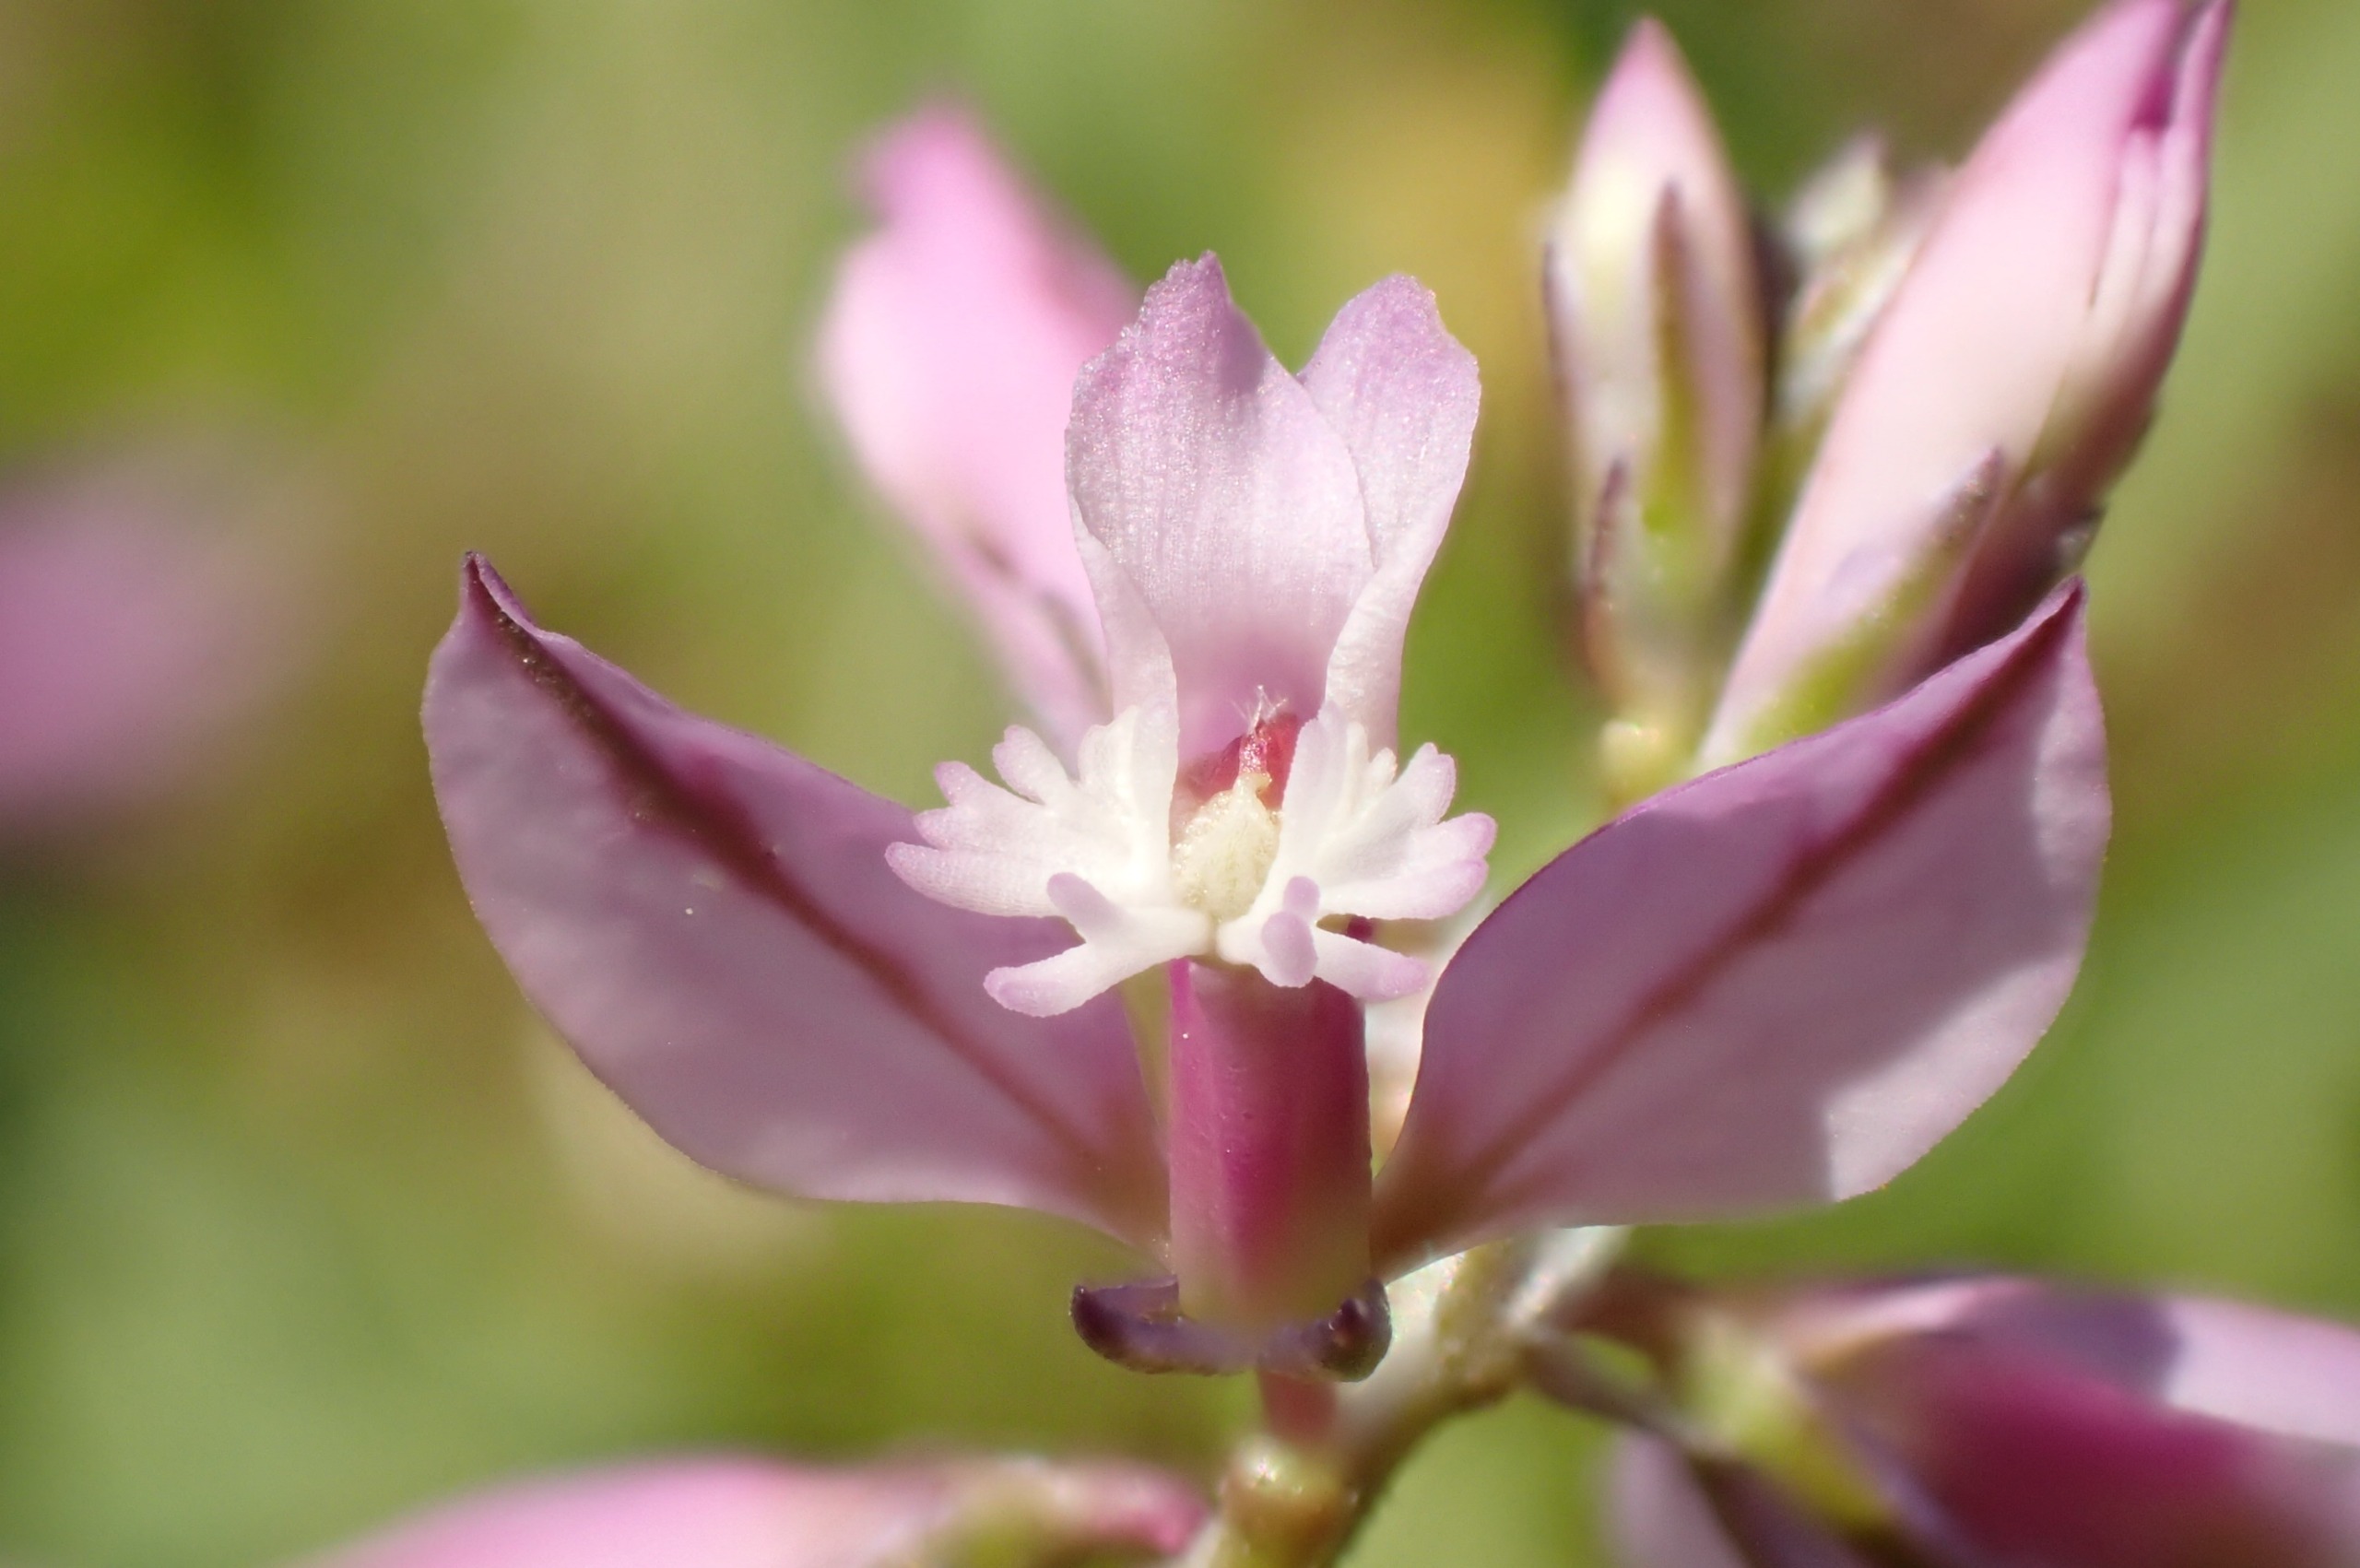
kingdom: Plantae
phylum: Tracheophyta
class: Magnoliopsida
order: Fabales
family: Polygalaceae
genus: Polygala
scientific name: Polygala vulgaris
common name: Almindelig mælkeurt
